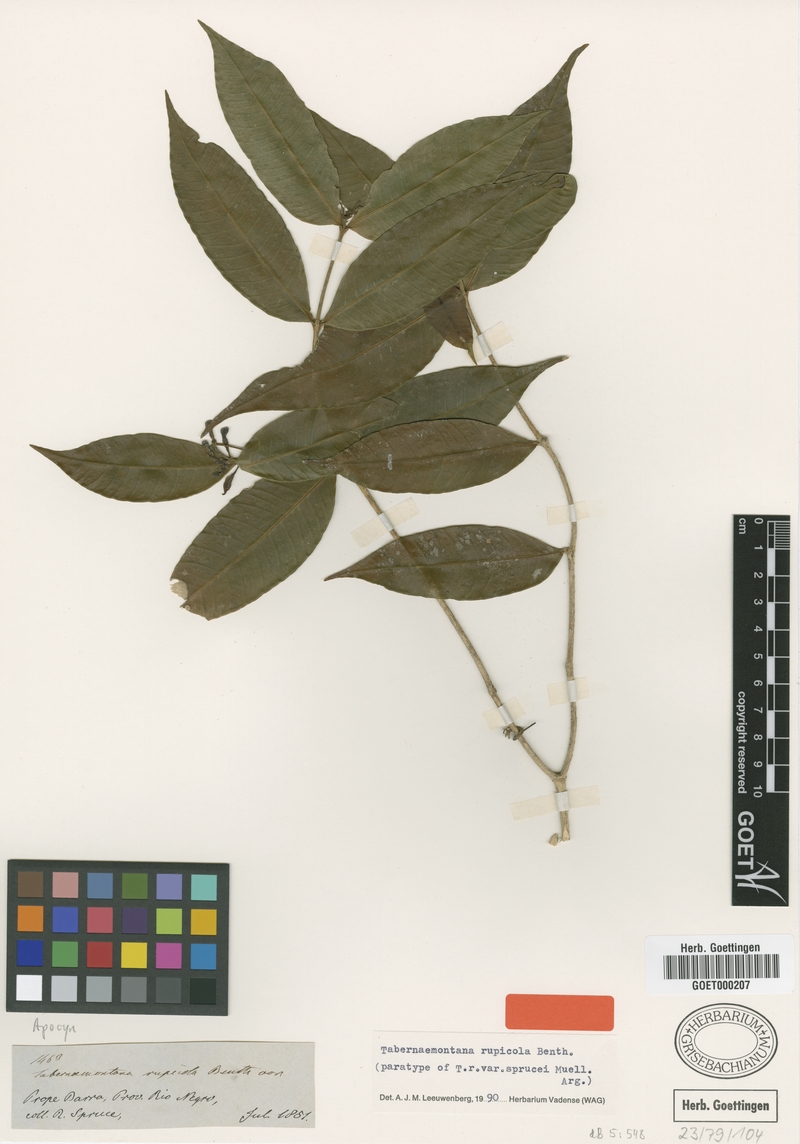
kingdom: Plantae
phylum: Tracheophyta
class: Magnoliopsida
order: Gentianales
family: Apocynaceae
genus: Tabernaemontana
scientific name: Tabernaemontana rupicola
